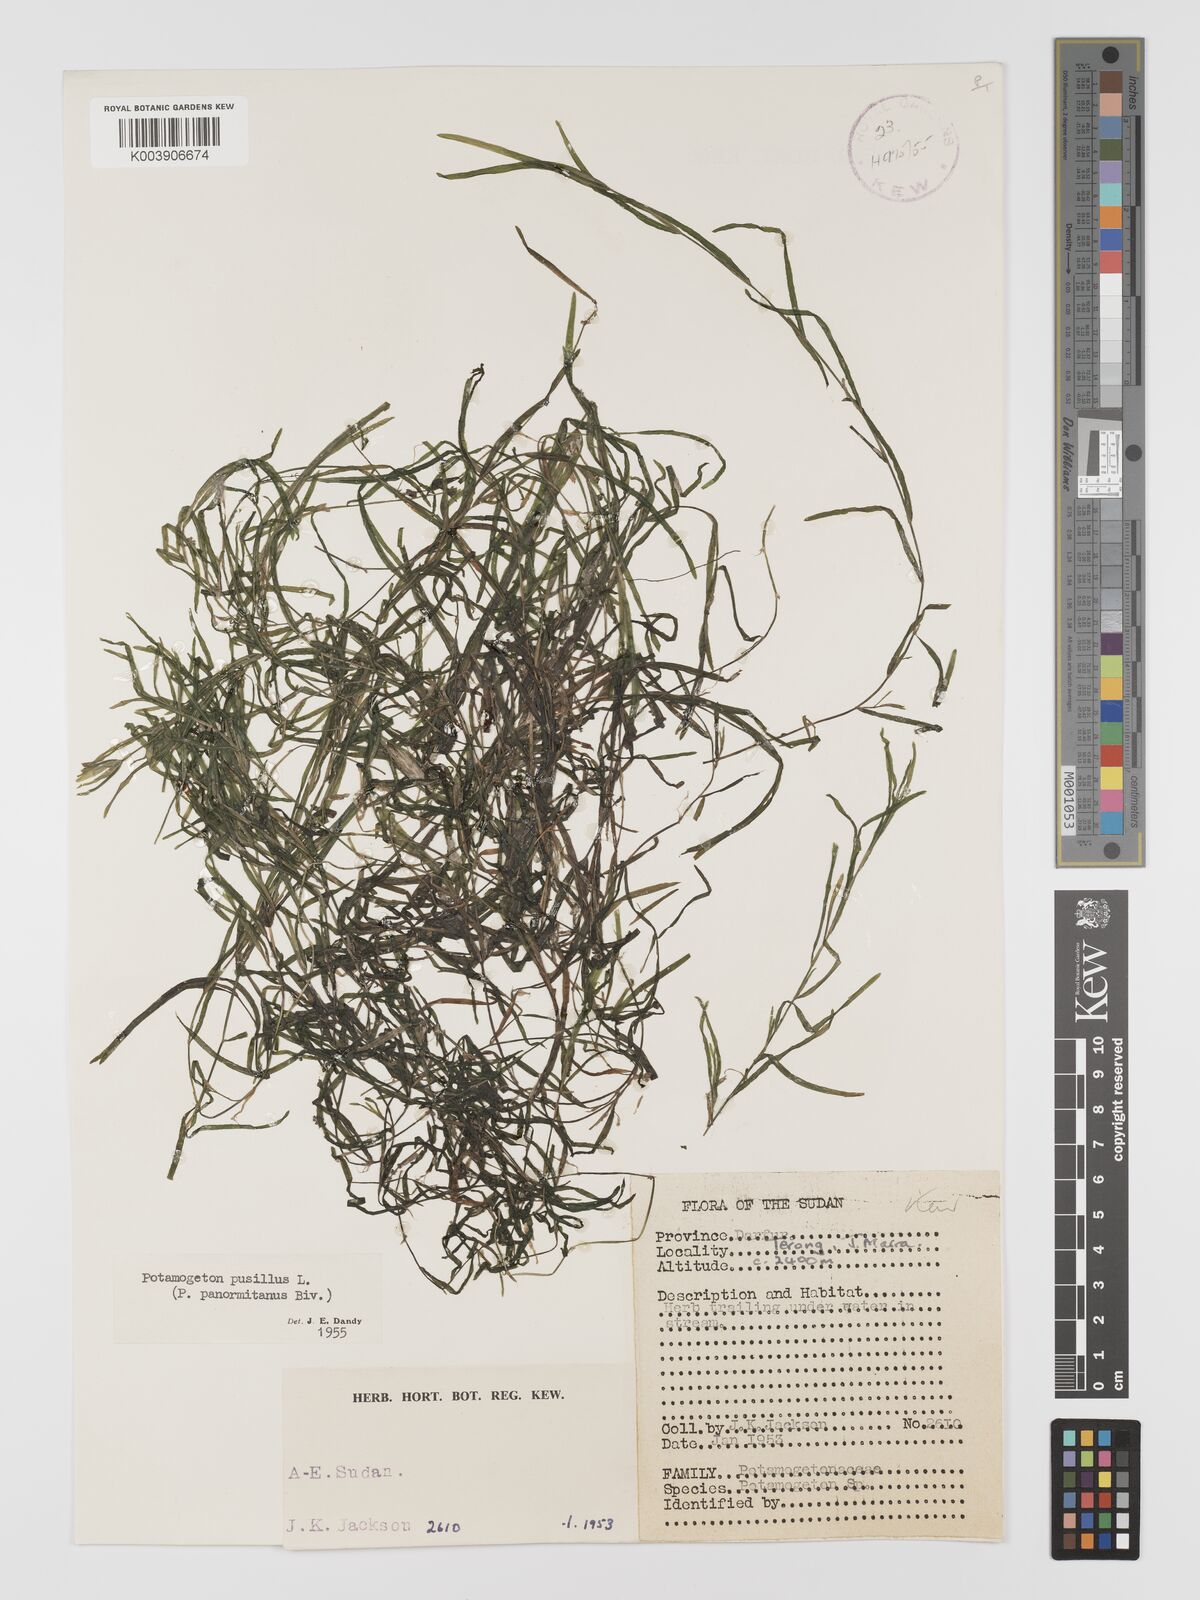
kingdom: Plantae
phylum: Tracheophyta
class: Liliopsida
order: Alismatales
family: Potamogetonaceae
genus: Potamogeton
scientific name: Potamogeton pusillus
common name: Lesser pondweed
